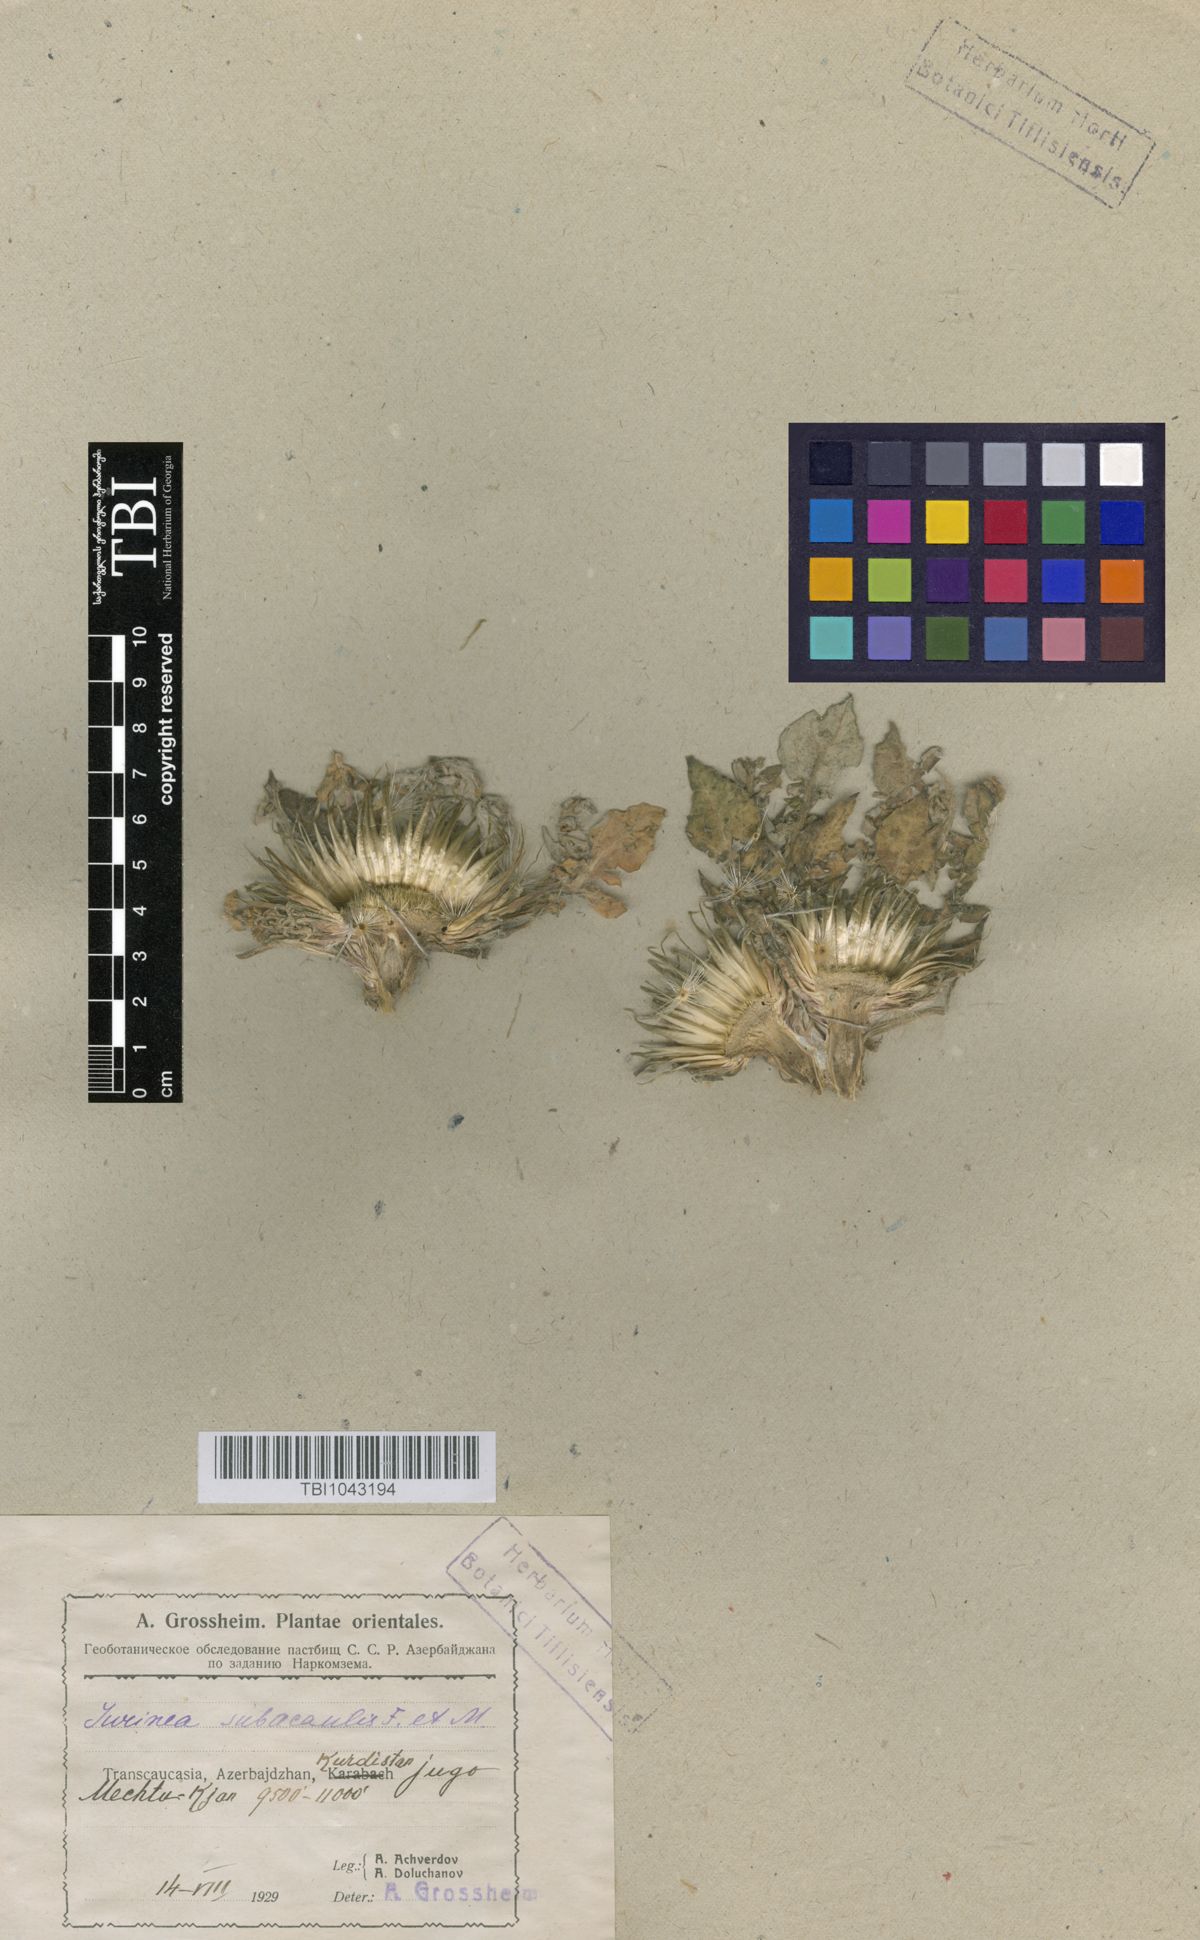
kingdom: Plantae
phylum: Tracheophyta
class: Magnoliopsida
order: Asterales
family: Asteraceae
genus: Jurinea
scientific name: Jurinea moschus
